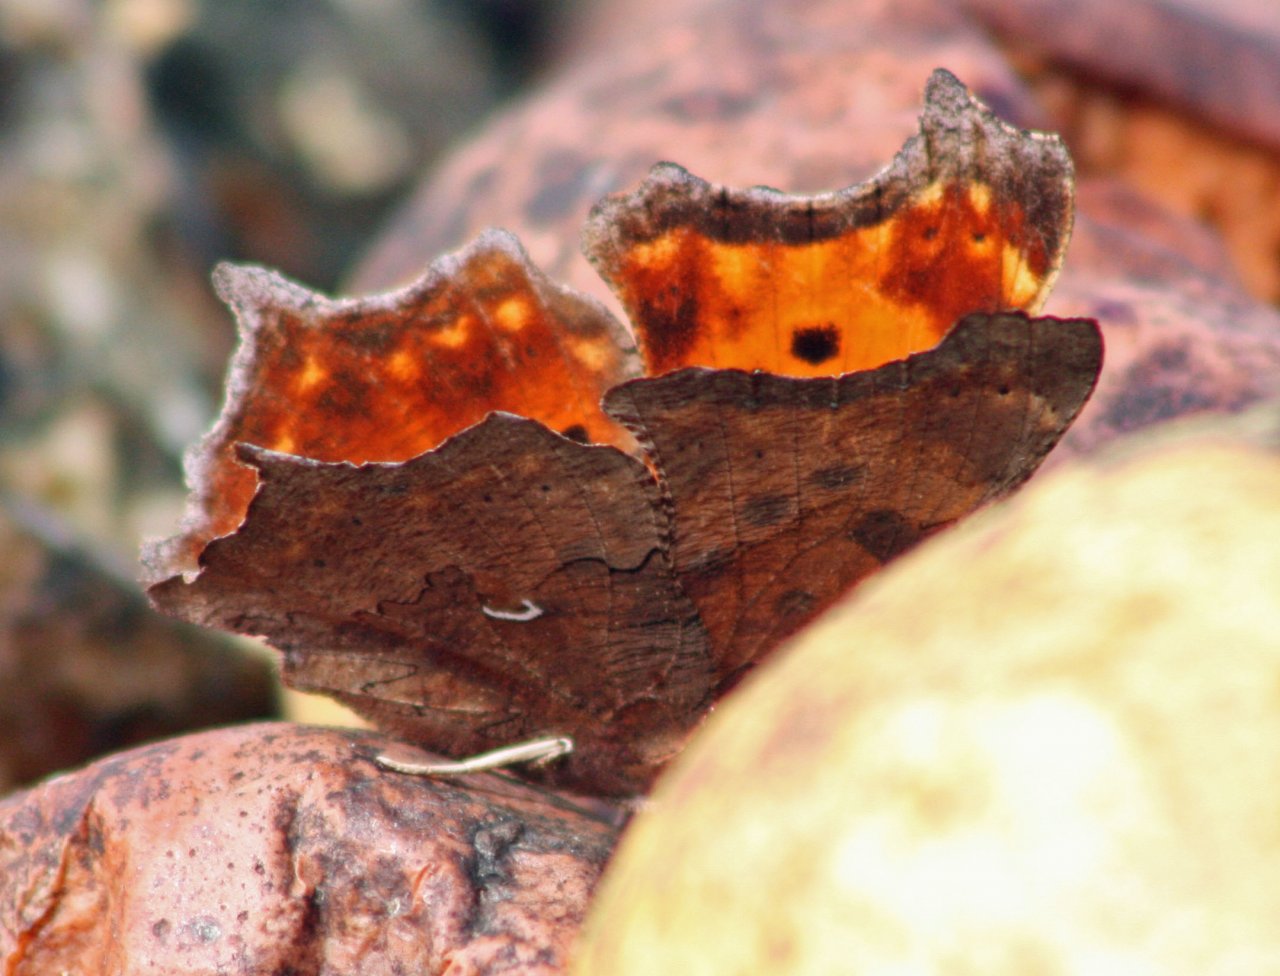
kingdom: Animalia
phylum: Arthropoda
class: Insecta
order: Lepidoptera
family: Nymphalidae
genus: Polygonia
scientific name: Polygonia comma
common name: Eastern Comma
